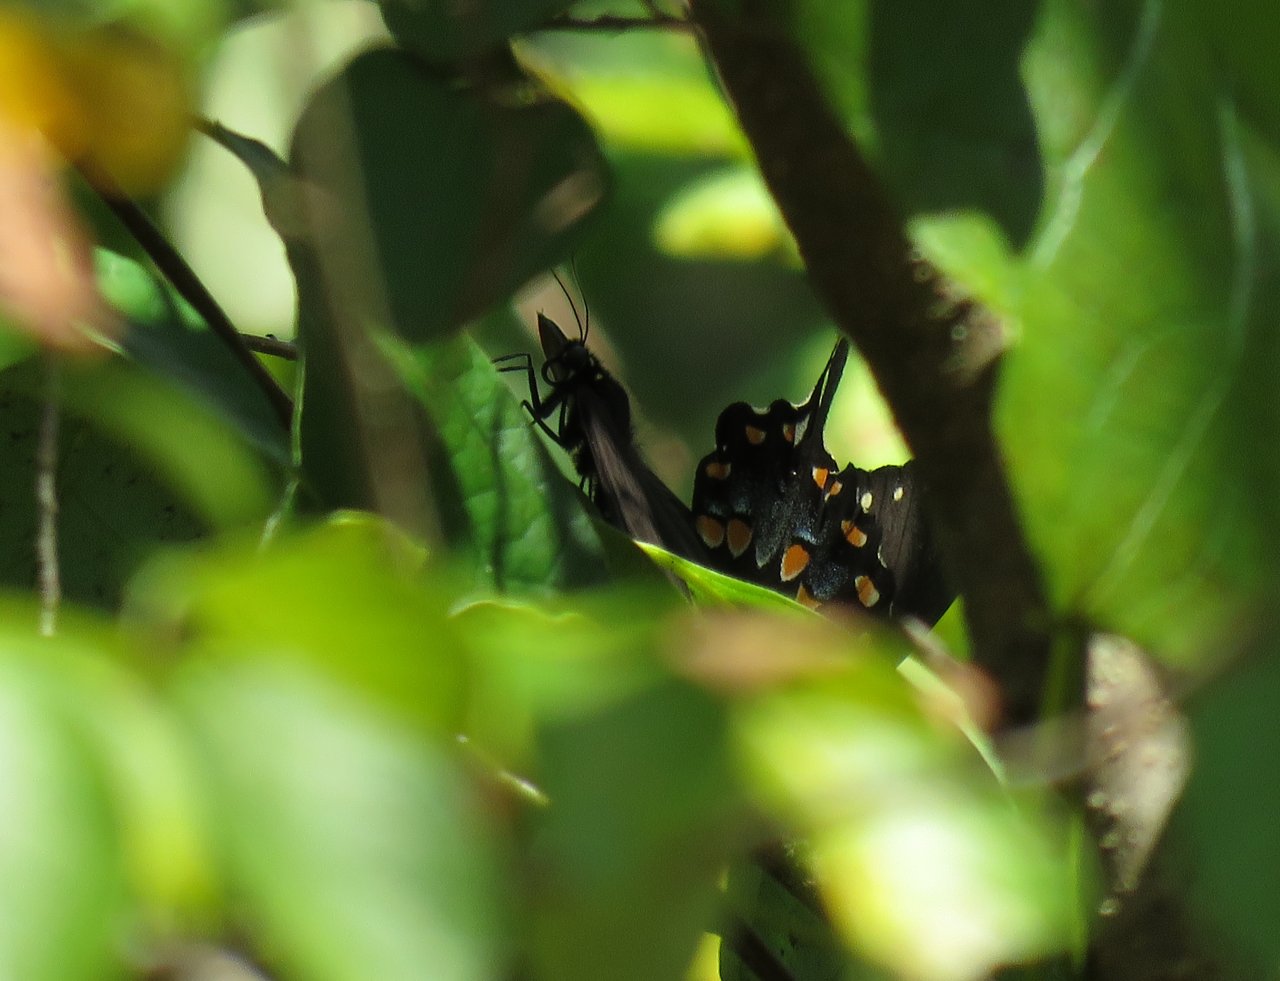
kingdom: Animalia
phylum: Arthropoda
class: Insecta
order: Lepidoptera
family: Papilionidae
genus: Pterourus
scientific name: Pterourus troilus
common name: Spicebush Swallowtail
